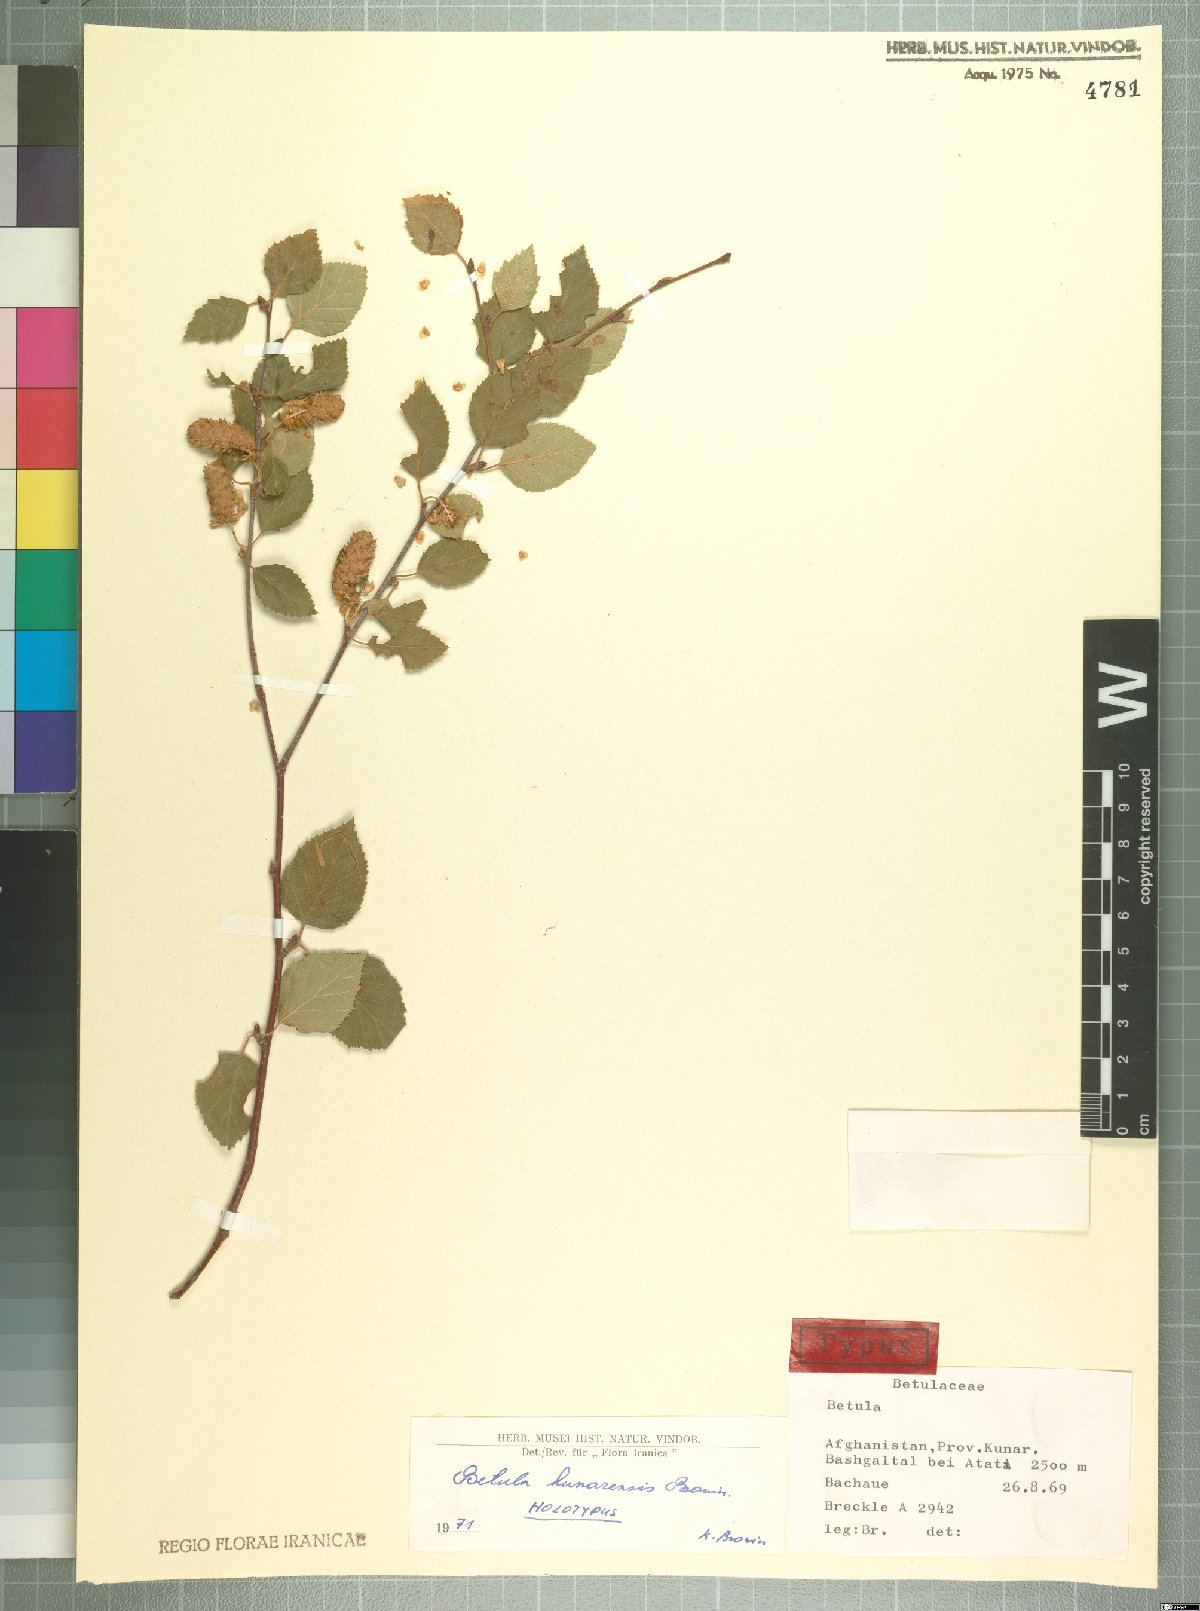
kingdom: Plantae
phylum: Tracheophyta
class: Magnoliopsida
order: Fagales
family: Betulaceae
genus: Betula
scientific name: Betula utilis
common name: Himalayan birch
